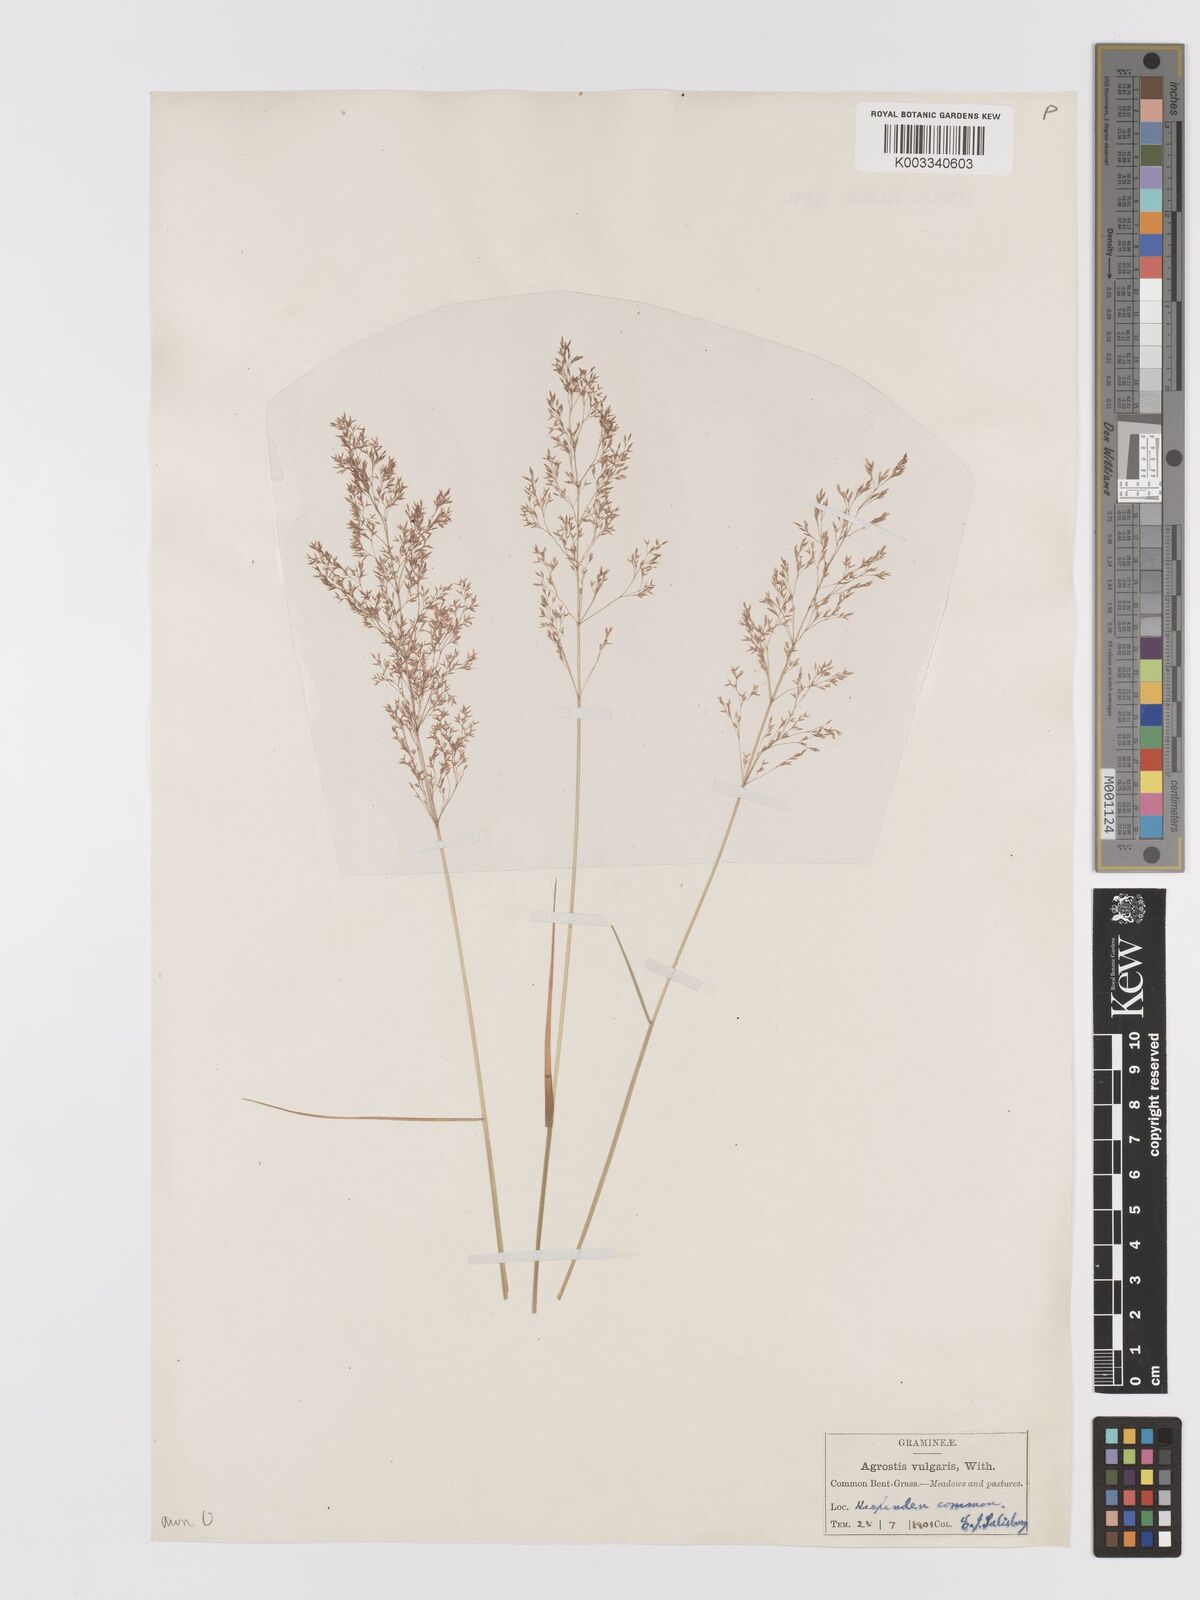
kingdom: Plantae
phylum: Tracheophyta
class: Liliopsida
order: Poales
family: Poaceae
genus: Agrostis
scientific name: Agrostis capillaris
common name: Colonial bentgrass
